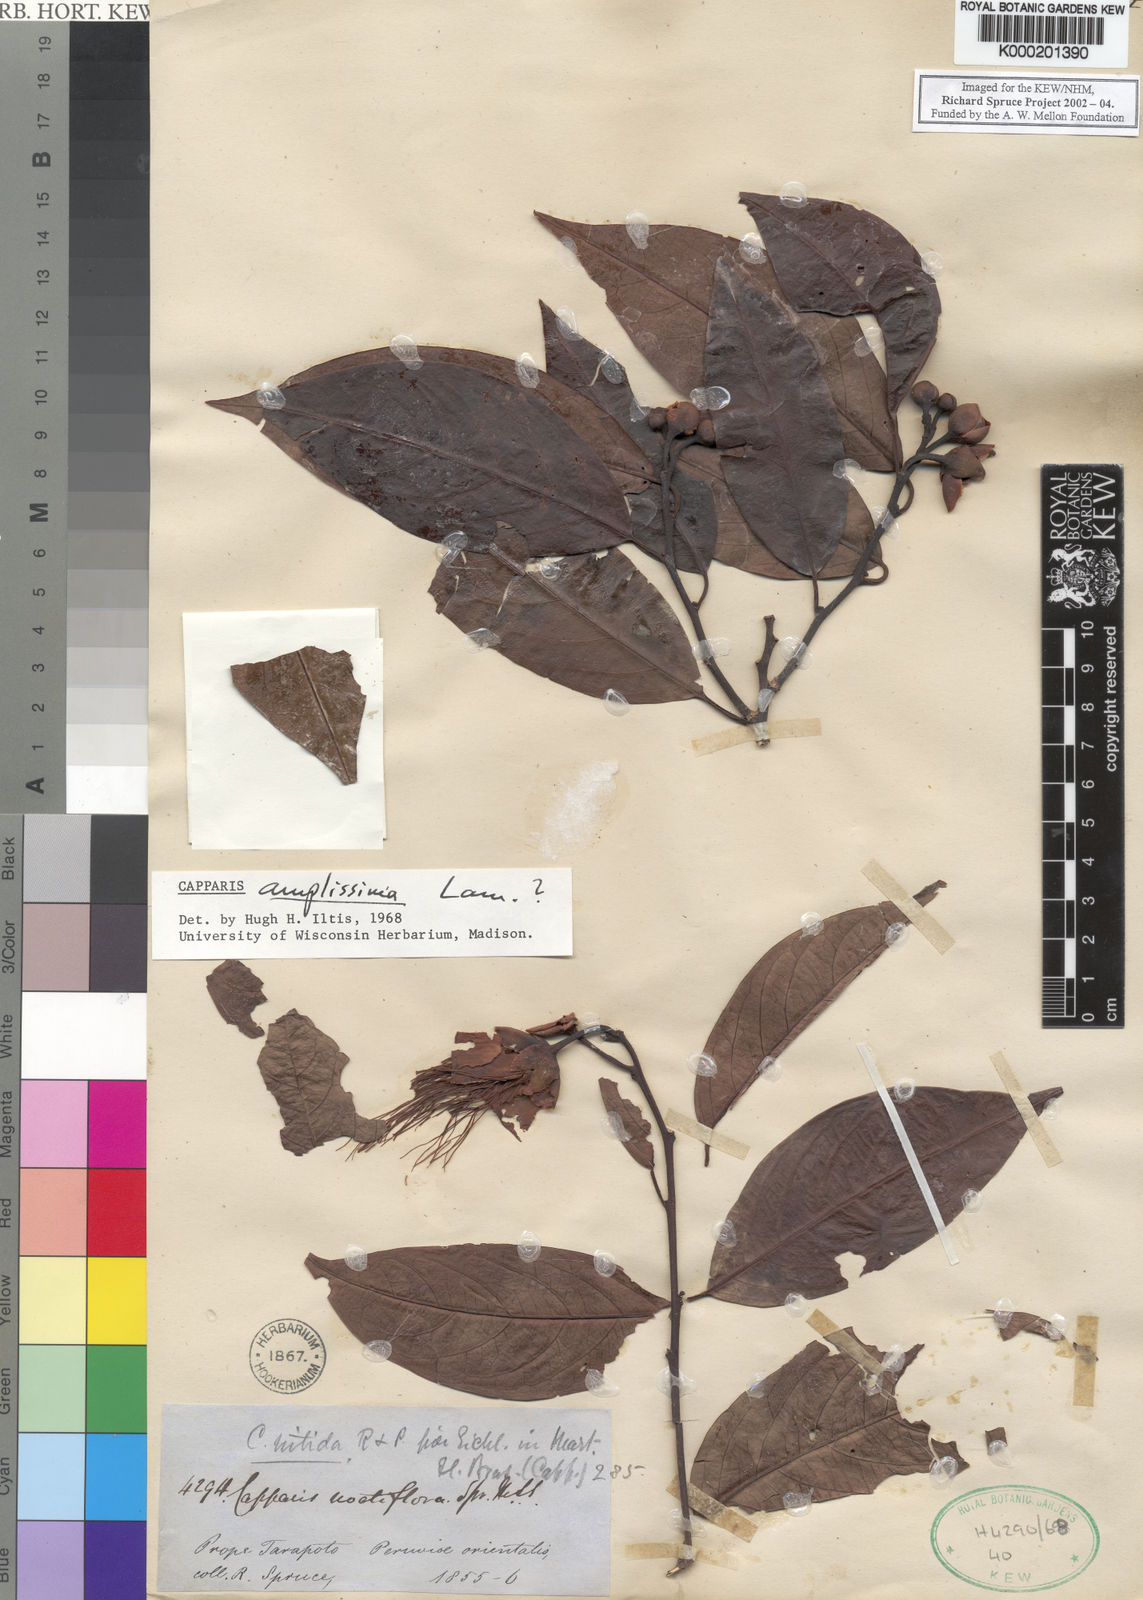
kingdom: Plantae
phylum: Tracheophyta
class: Magnoliopsida
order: Brassicales
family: Capparaceae
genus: Cynophalla
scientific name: Cynophalla amplissima
